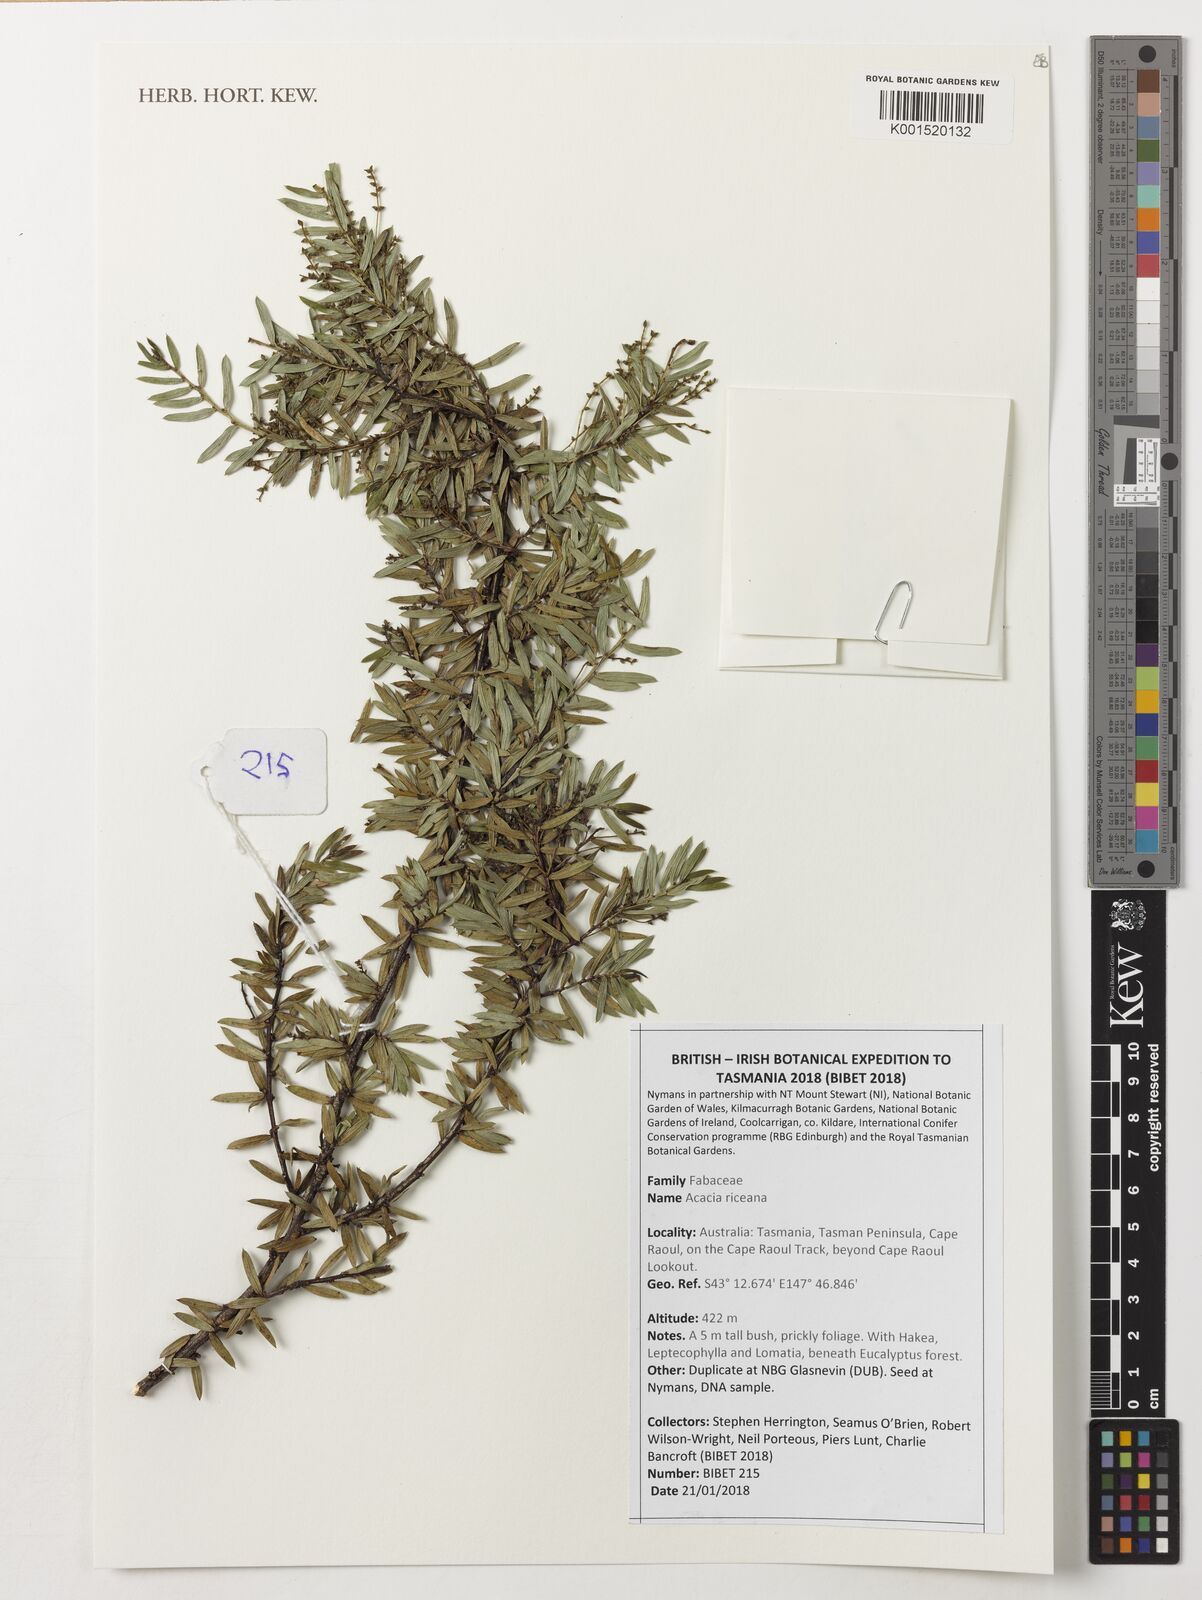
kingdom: Plantae
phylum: Tracheophyta
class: Magnoliopsida
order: Fabales
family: Fabaceae
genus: Acacia
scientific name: Acacia riceana
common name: Rice's wattle
